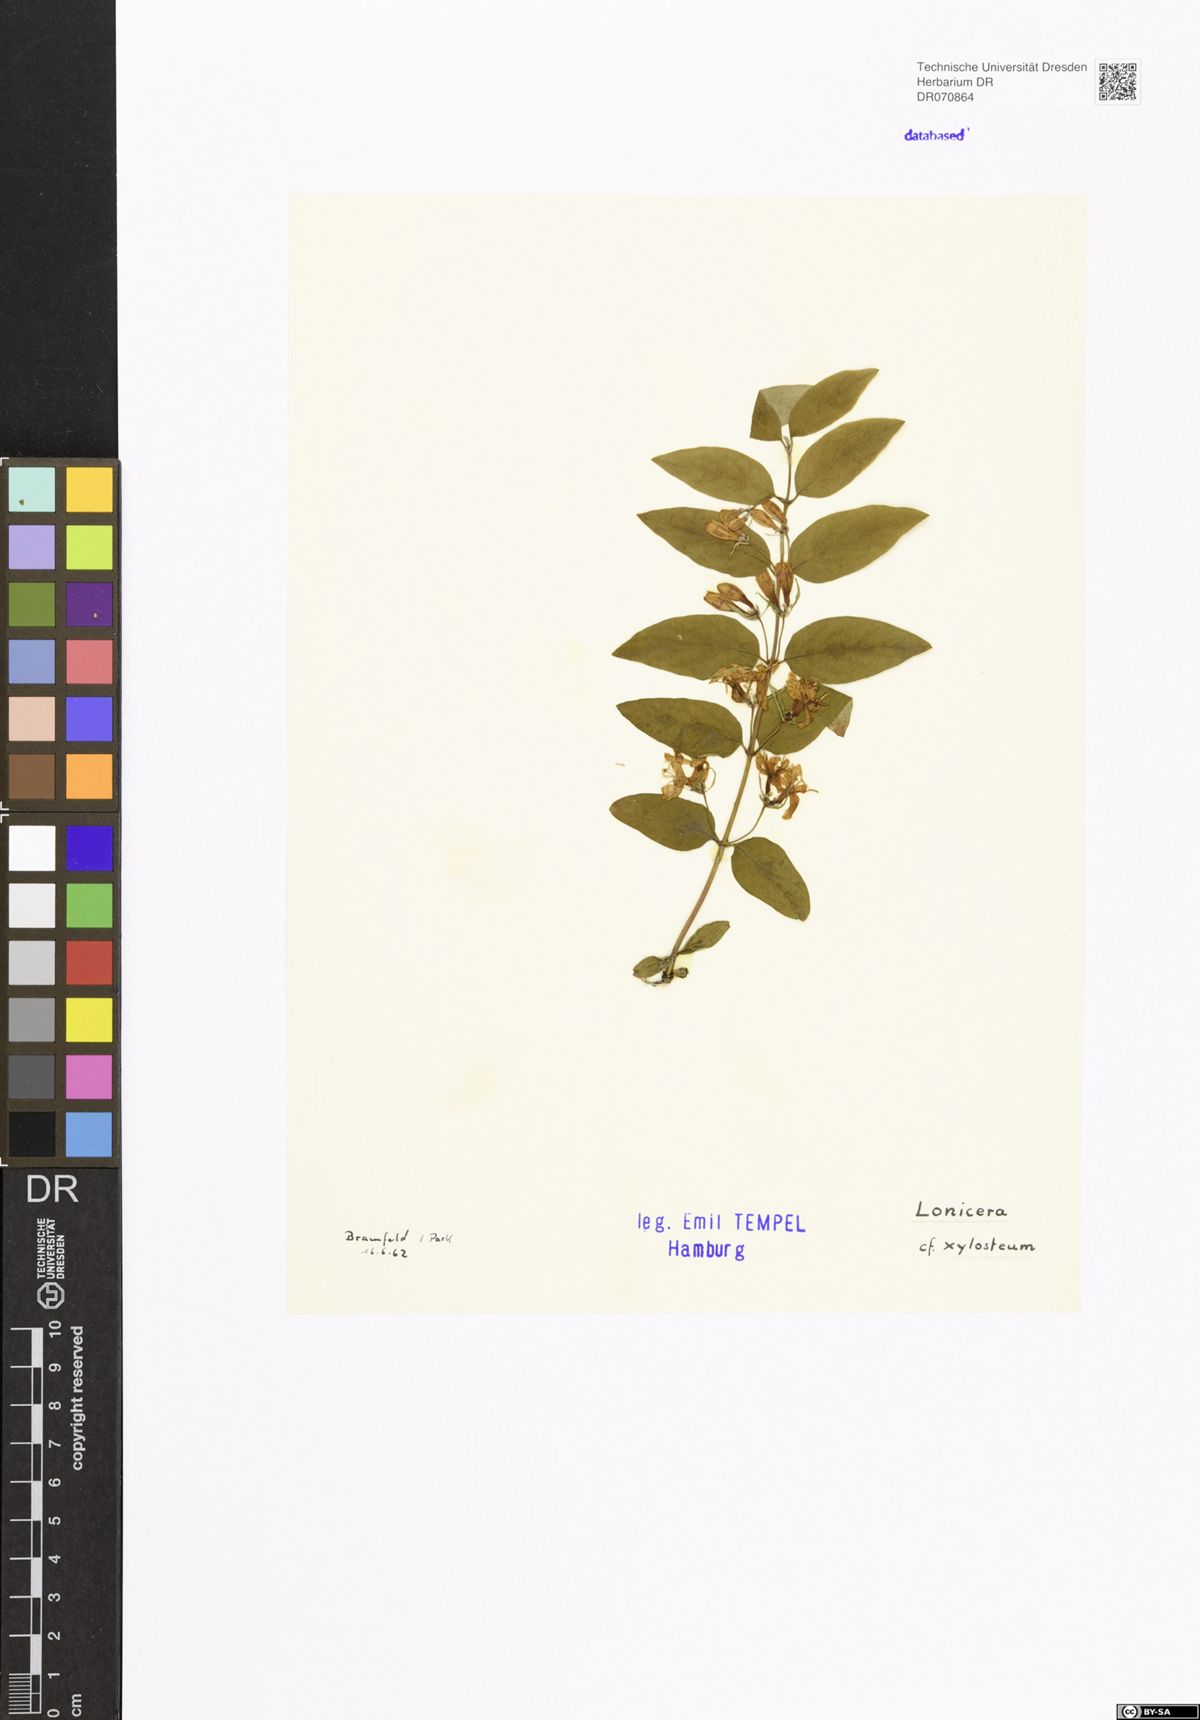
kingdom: Plantae
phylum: Tracheophyta
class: Magnoliopsida
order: Dipsacales
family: Caprifoliaceae
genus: Lonicera
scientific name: Lonicera xylosteum
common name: Fly honeysuckle
